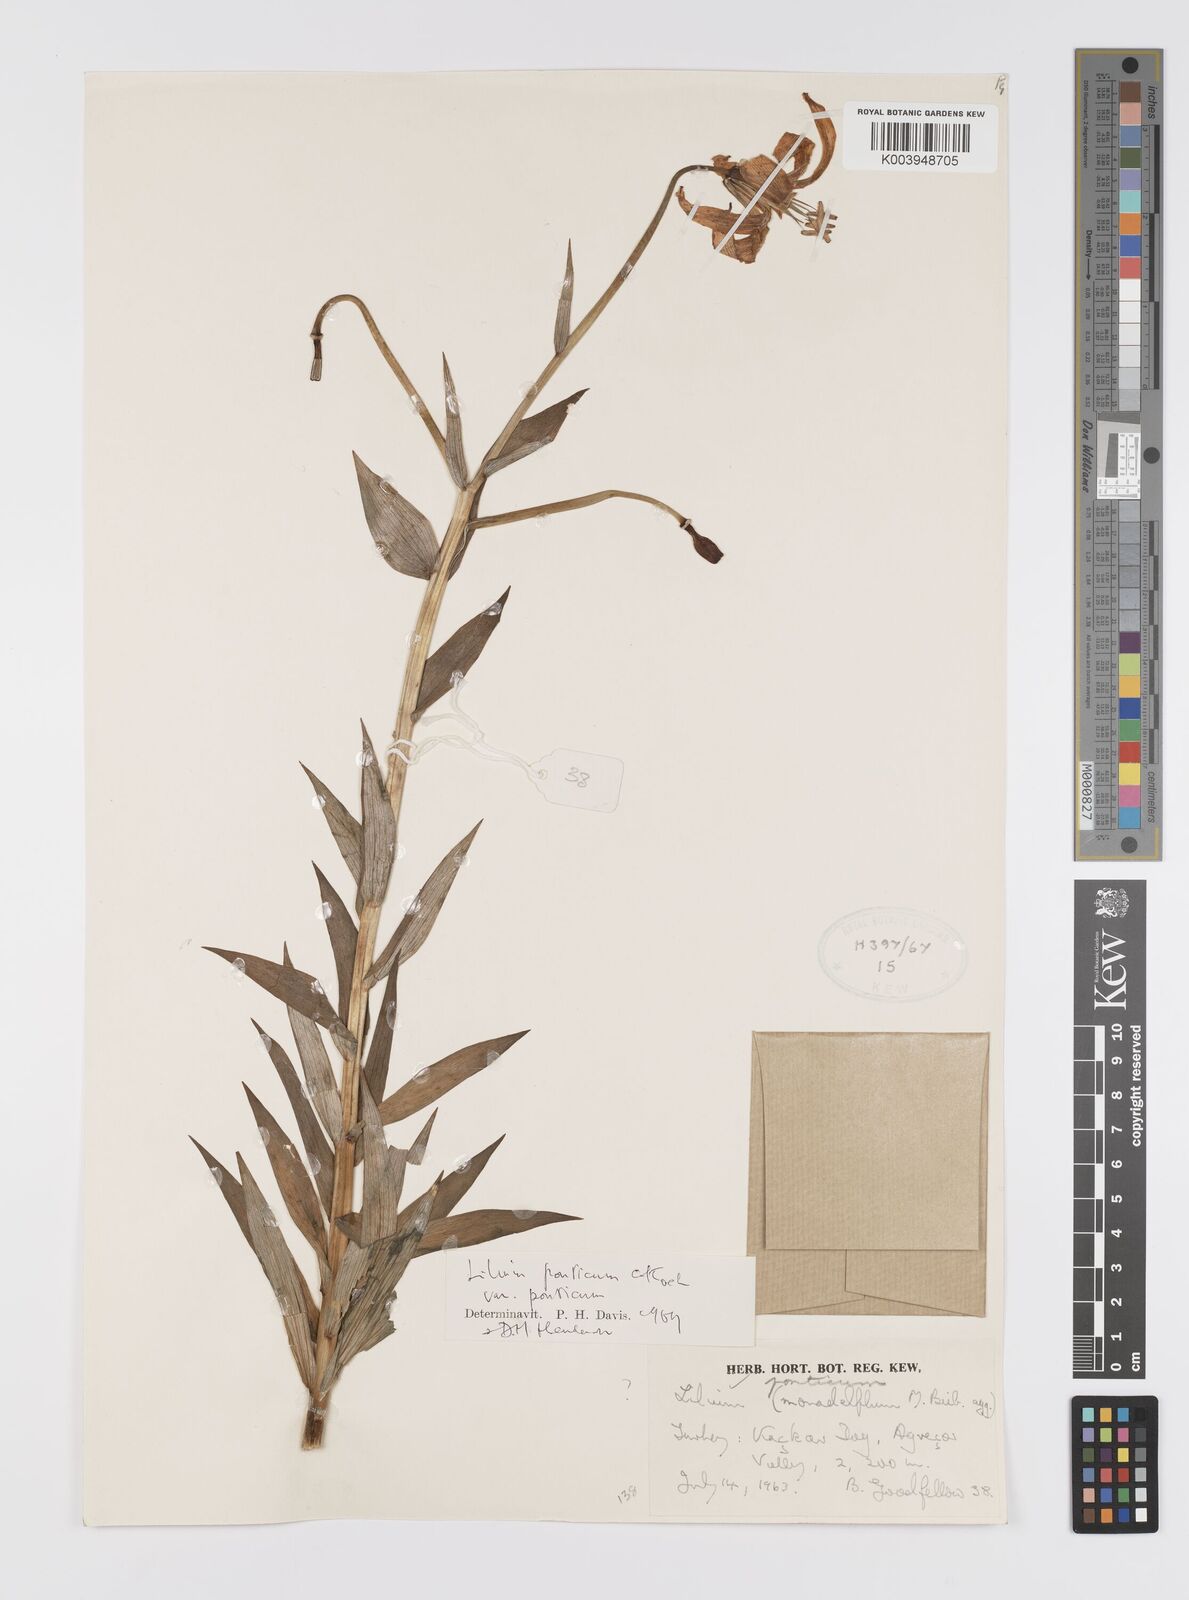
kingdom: Plantae
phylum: Tracheophyta
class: Liliopsida
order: Liliales
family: Liliaceae
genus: Lilium
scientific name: Lilium ponticum
